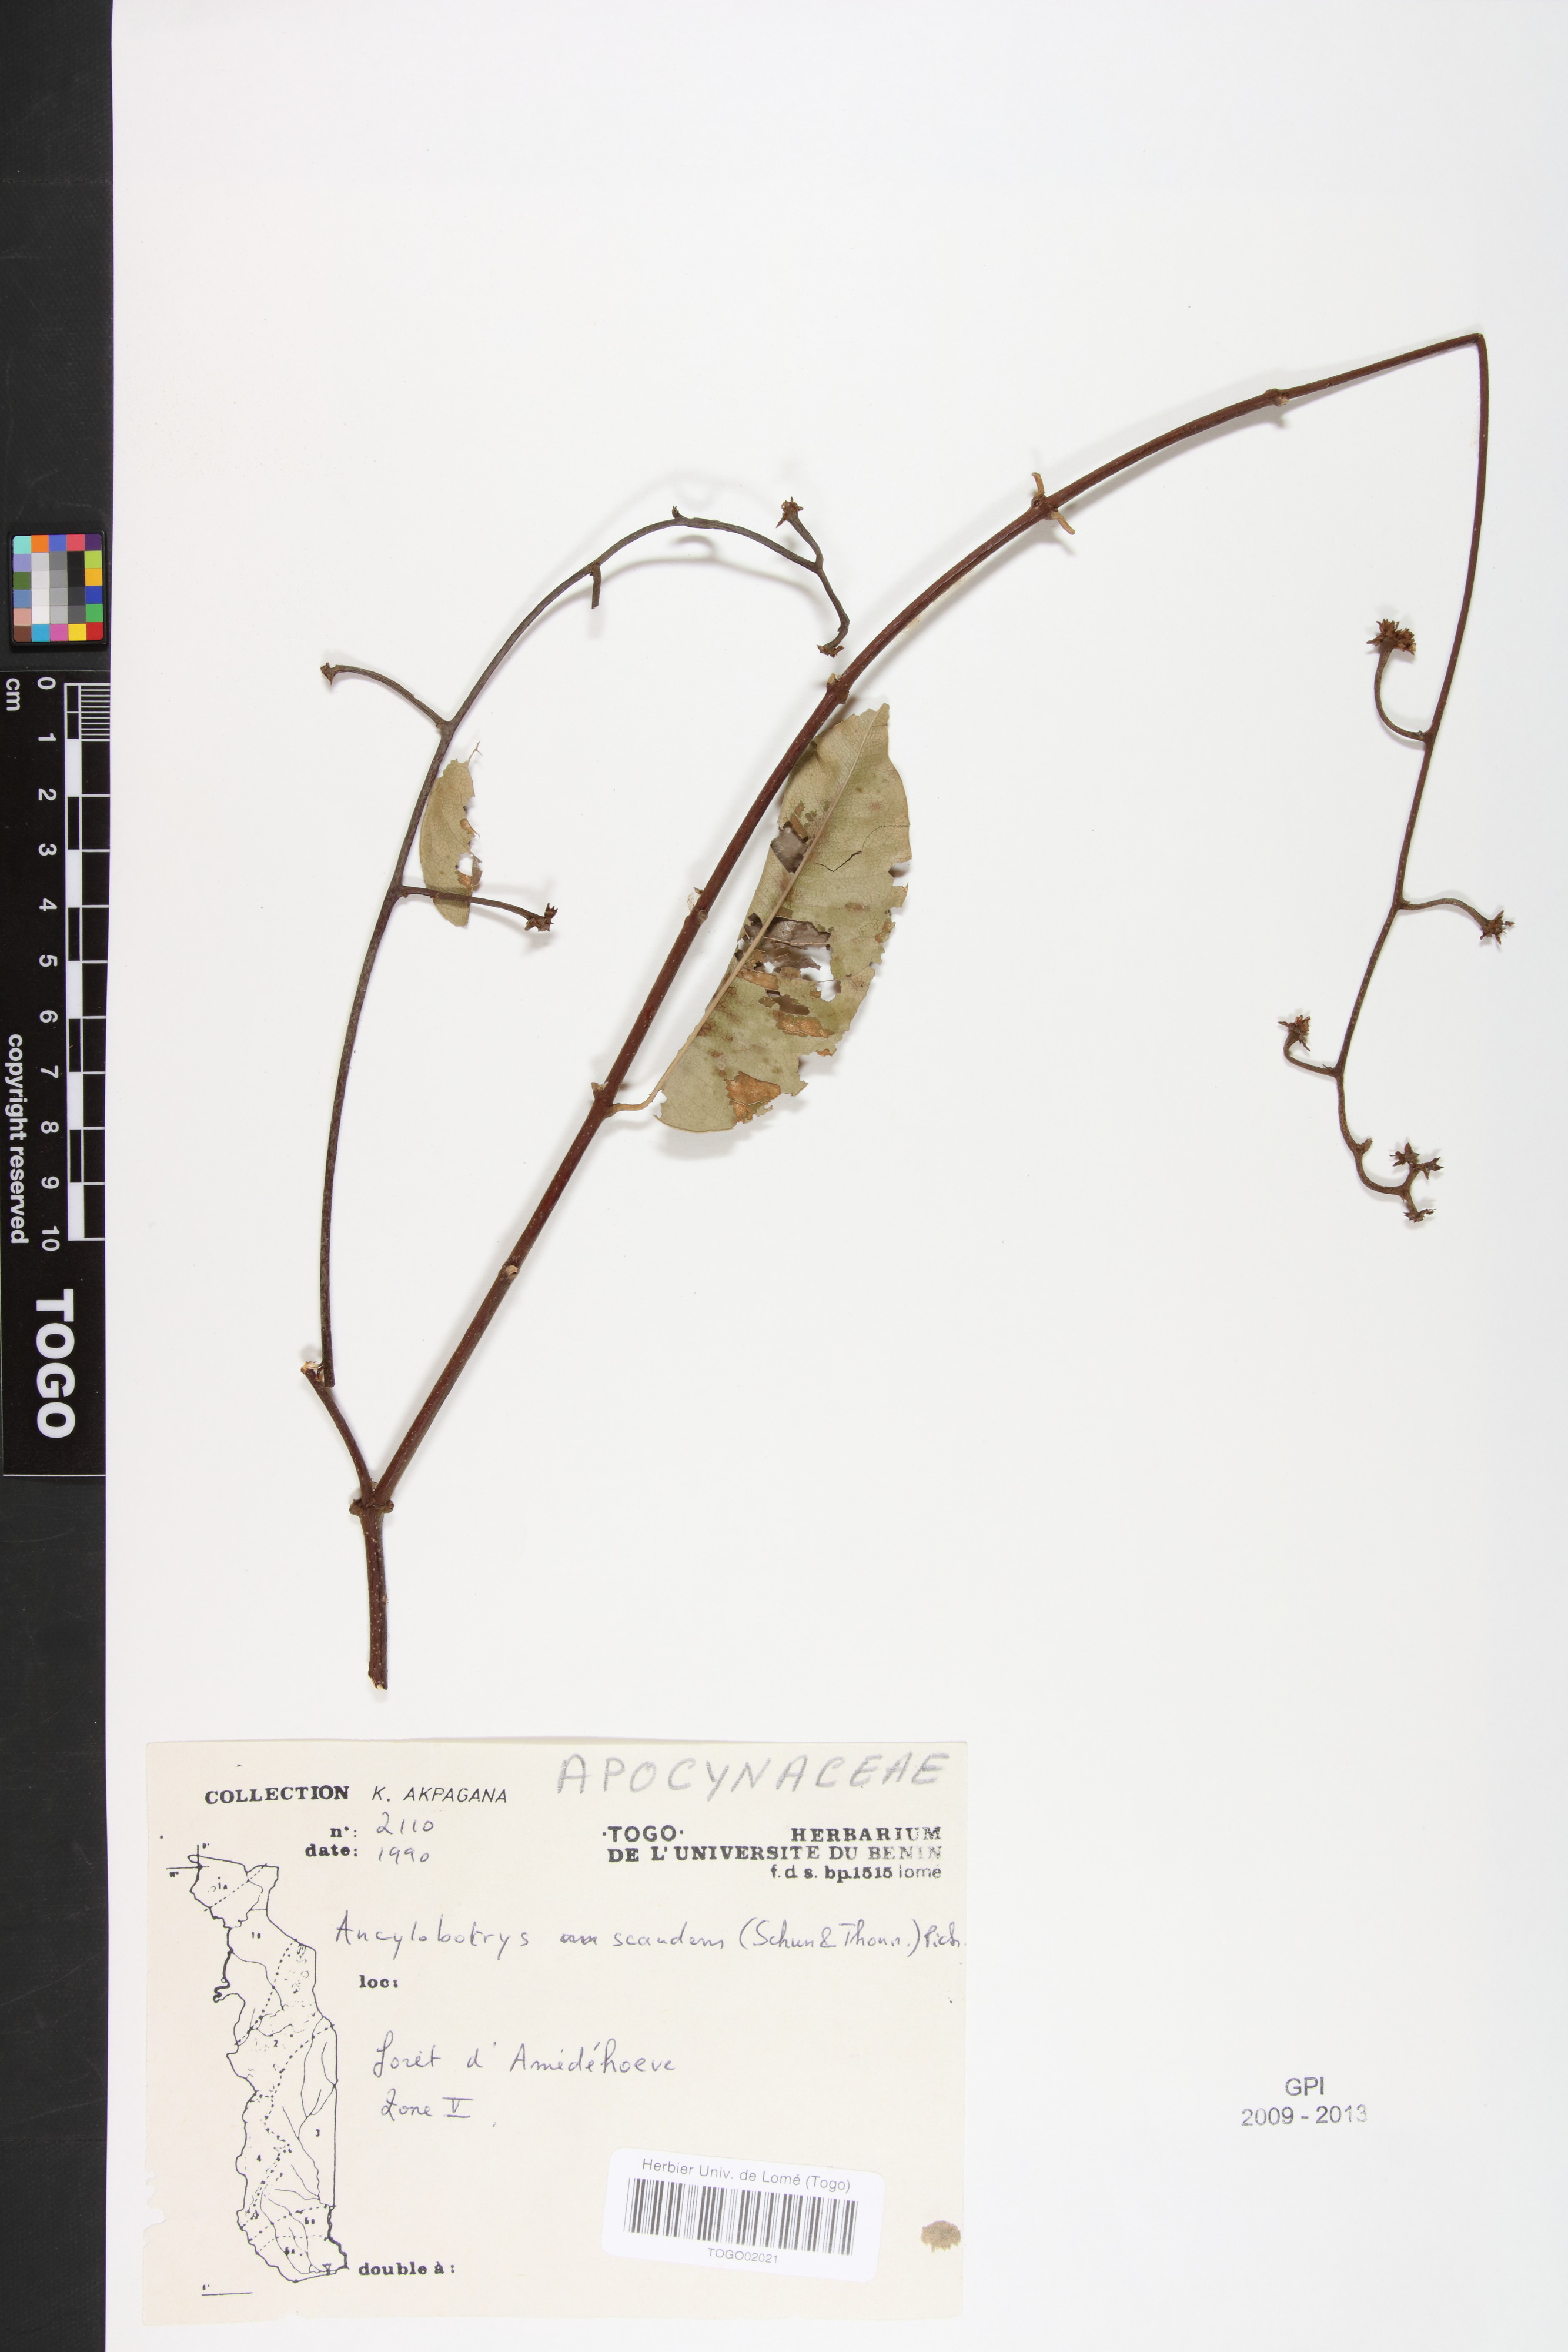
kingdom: Plantae
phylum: Tracheophyta
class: Magnoliopsida
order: Gentianales
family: Apocynaceae
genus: Ancylobothrys
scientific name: Ancylobothrys scandens
